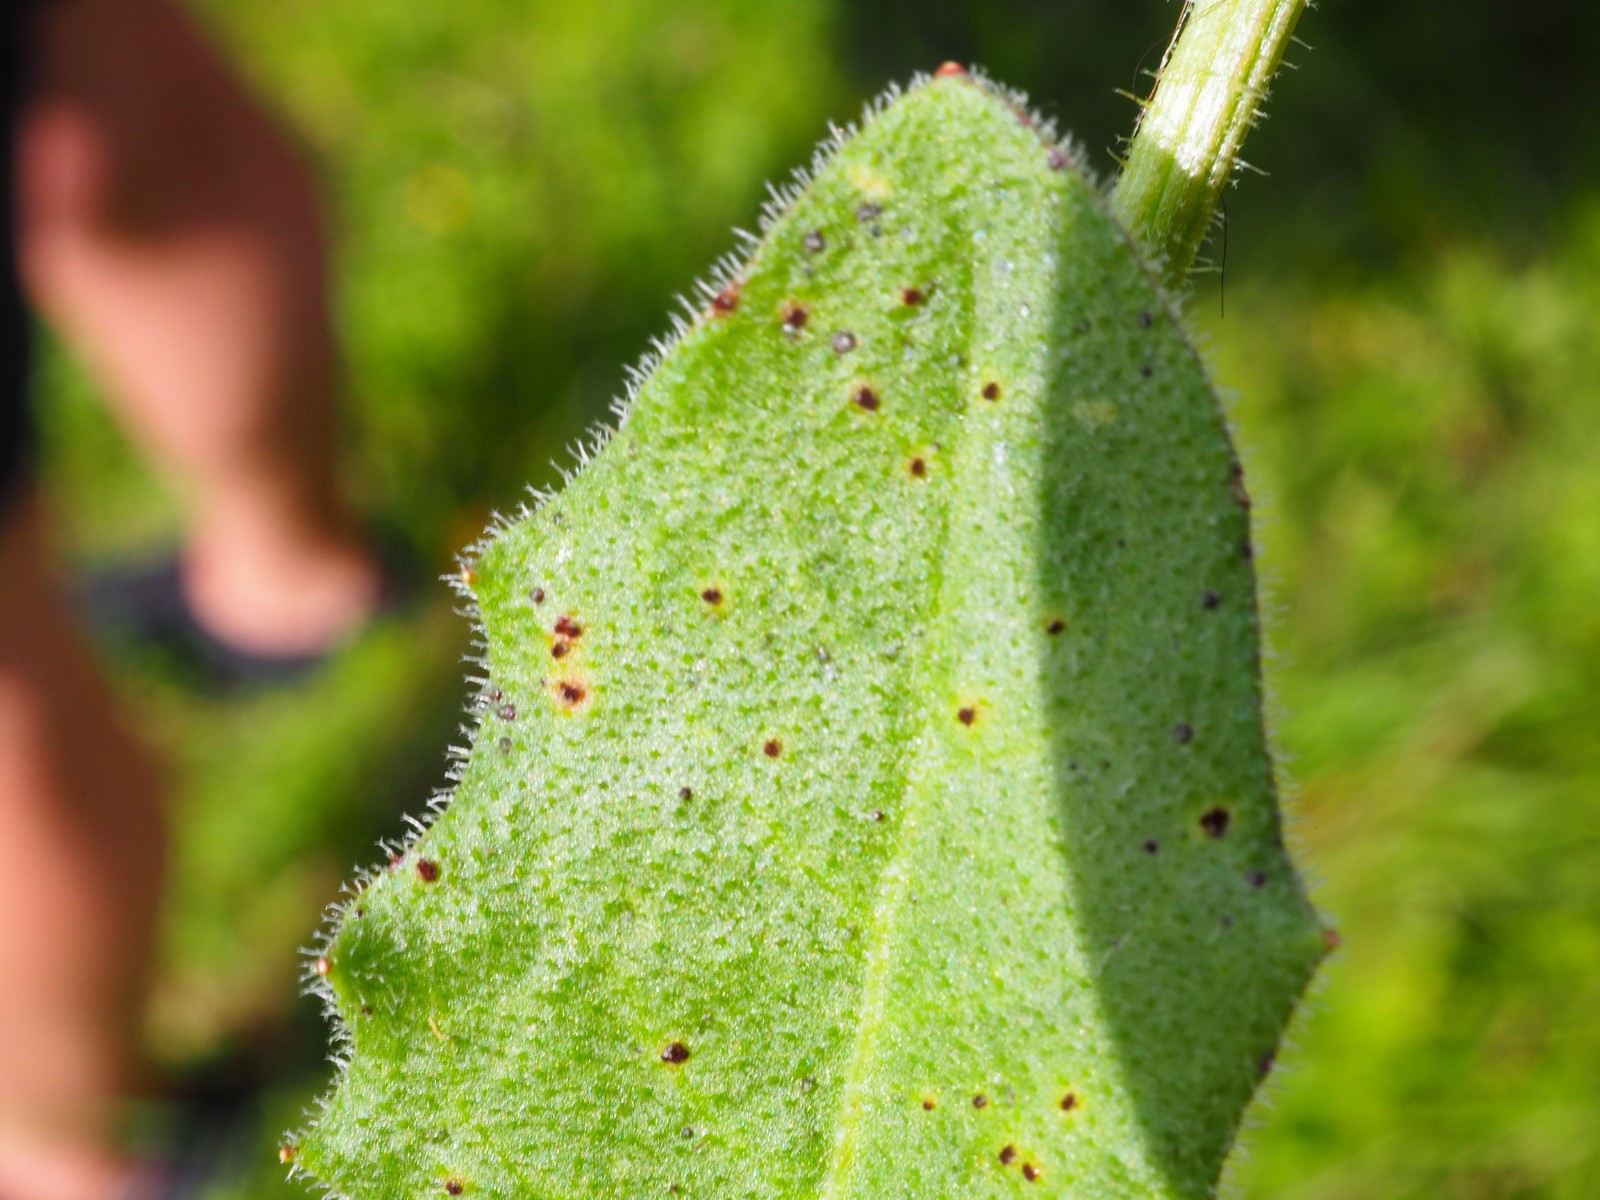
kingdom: Fungi
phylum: Basidiomycota
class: Pucciniomycetes
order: Pucciniales
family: Pucciniaceae
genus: Puccinia
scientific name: Puccinia hieracii
